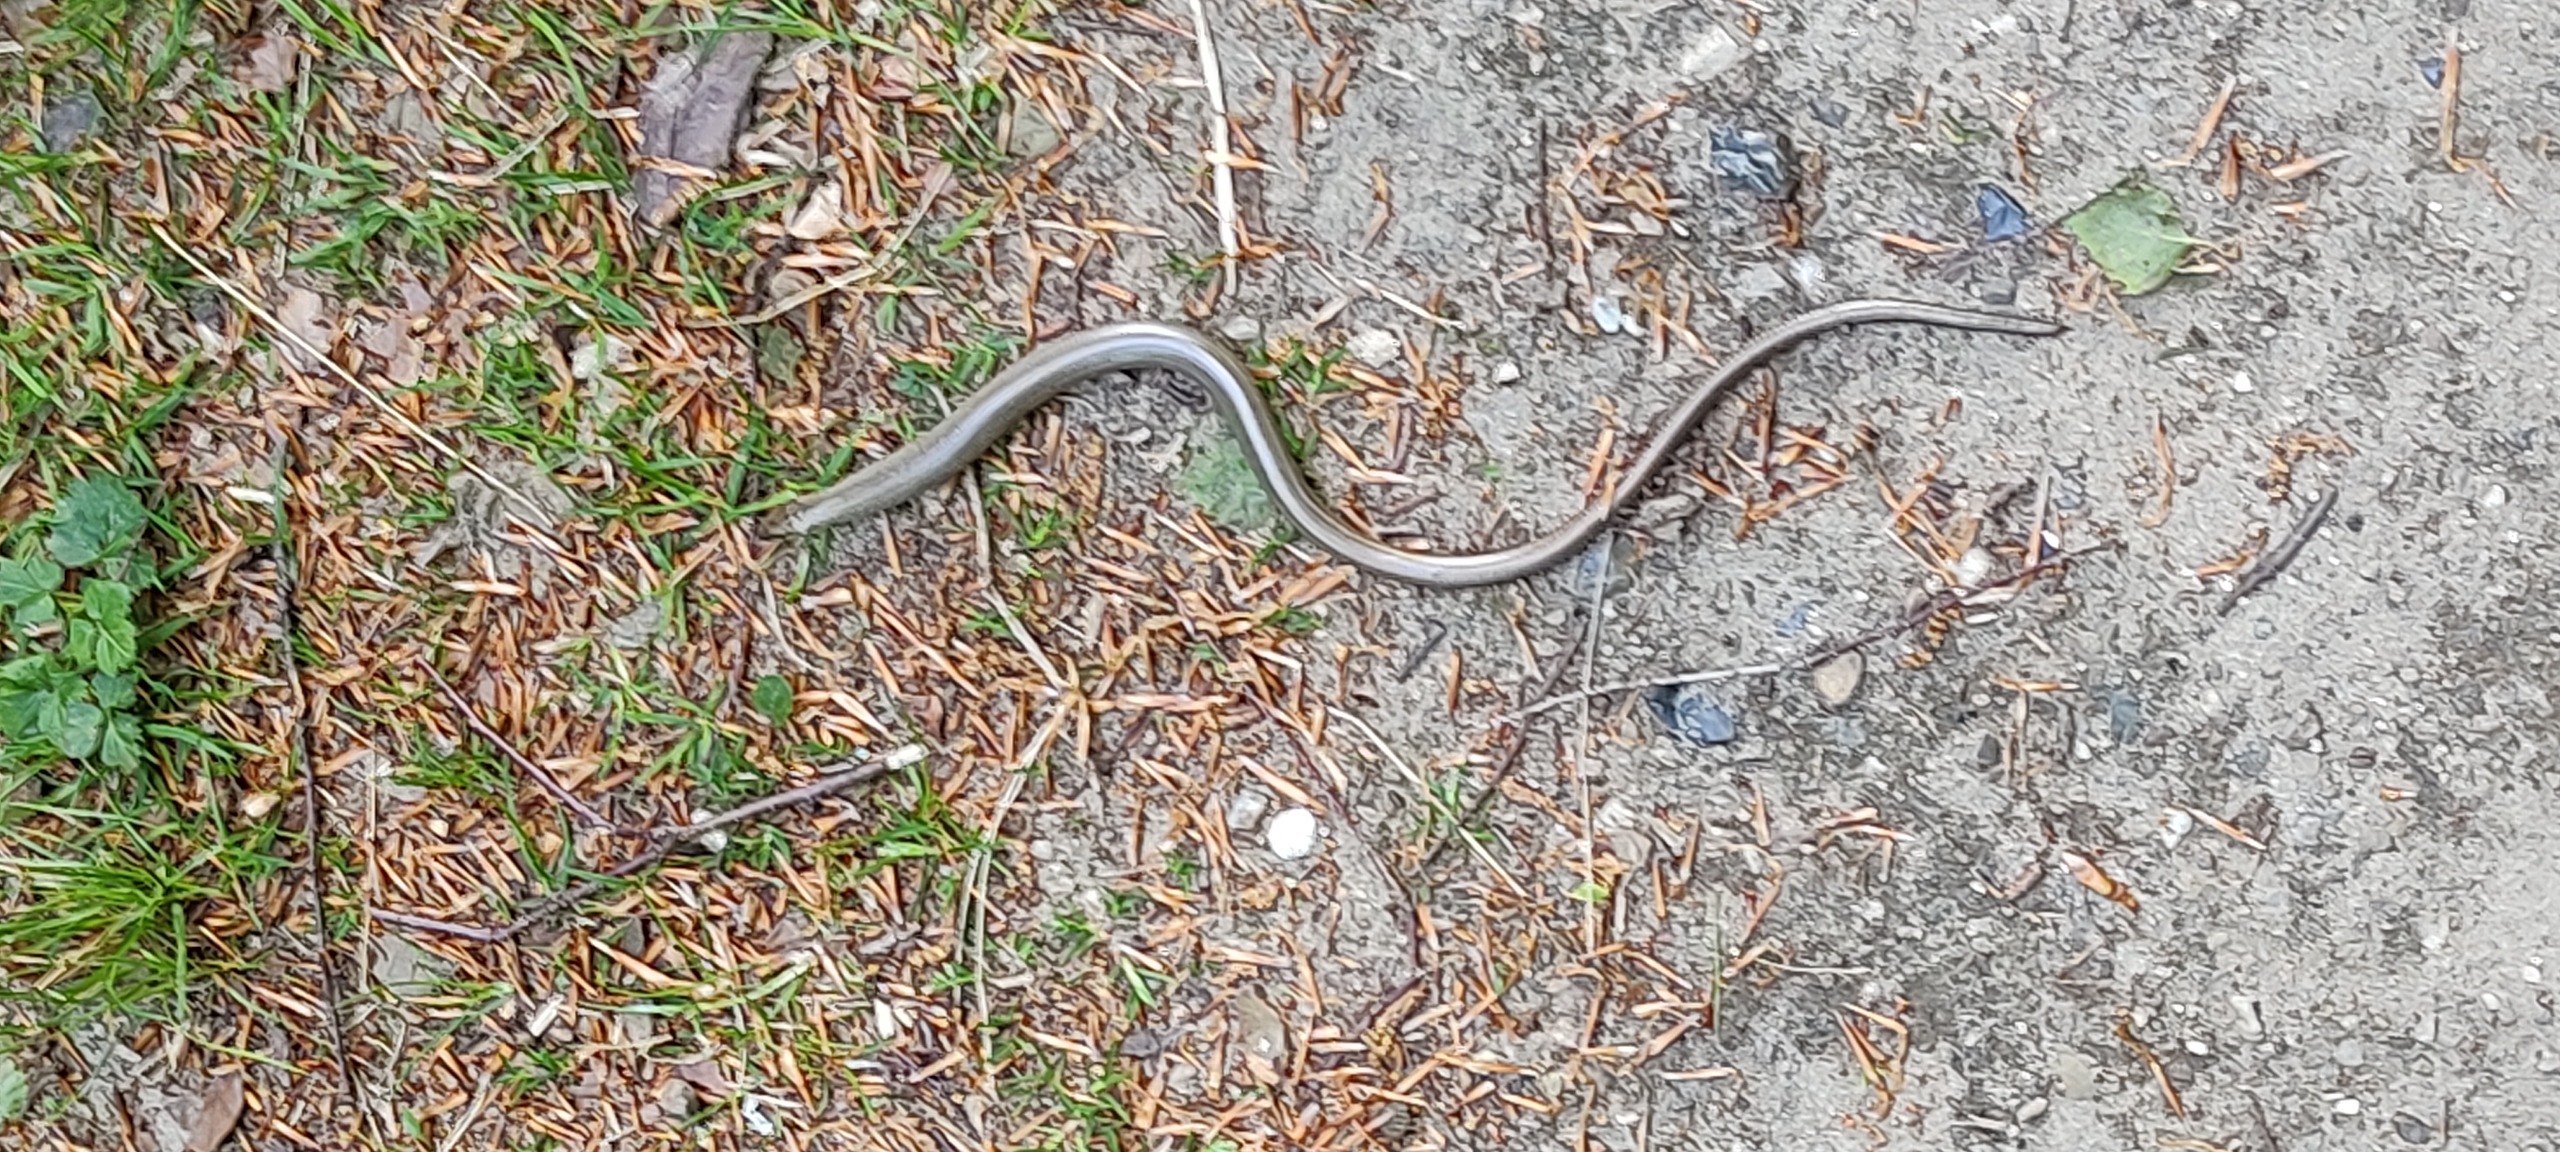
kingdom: Animalia
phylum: Chordata
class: Squamata
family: Anguidae
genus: Anguis
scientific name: Anguis fragilis
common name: Stålorm
